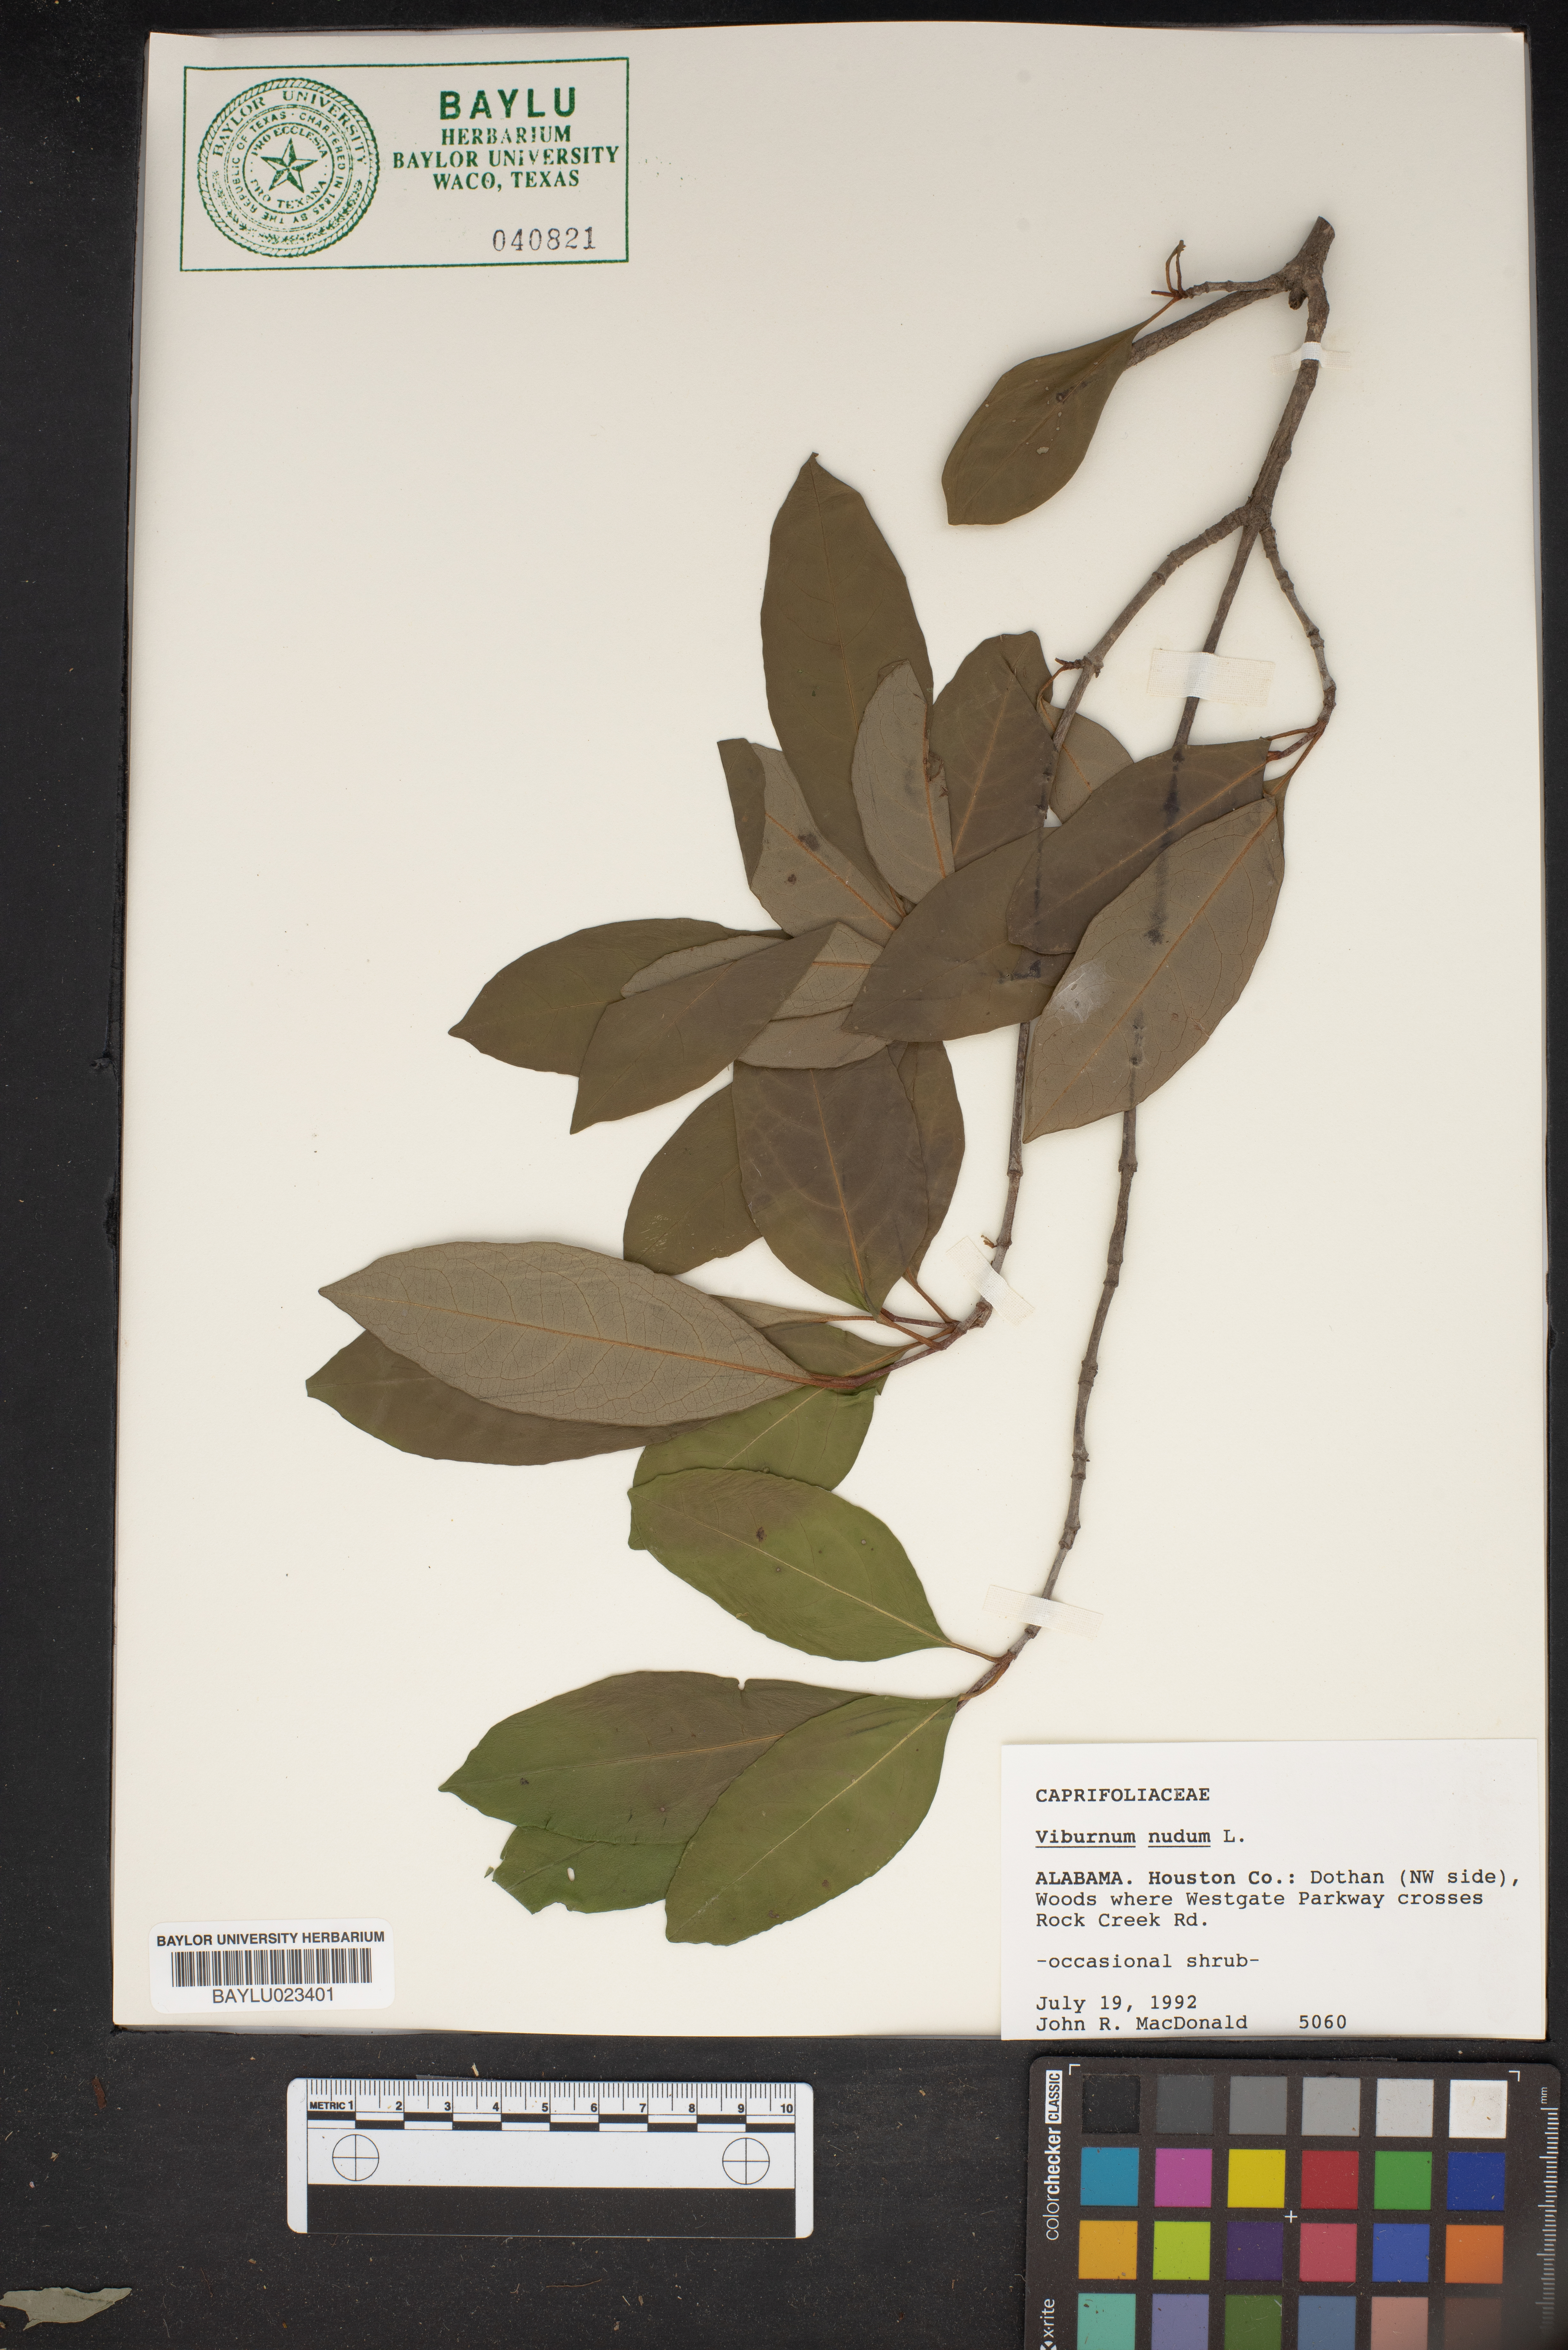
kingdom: Plantae
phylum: Tracheophyta
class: Magnoliopsida
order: Dipsacales
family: Viburnaceae
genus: Viburnum
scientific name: Viburnum nudum
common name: Possum haw
